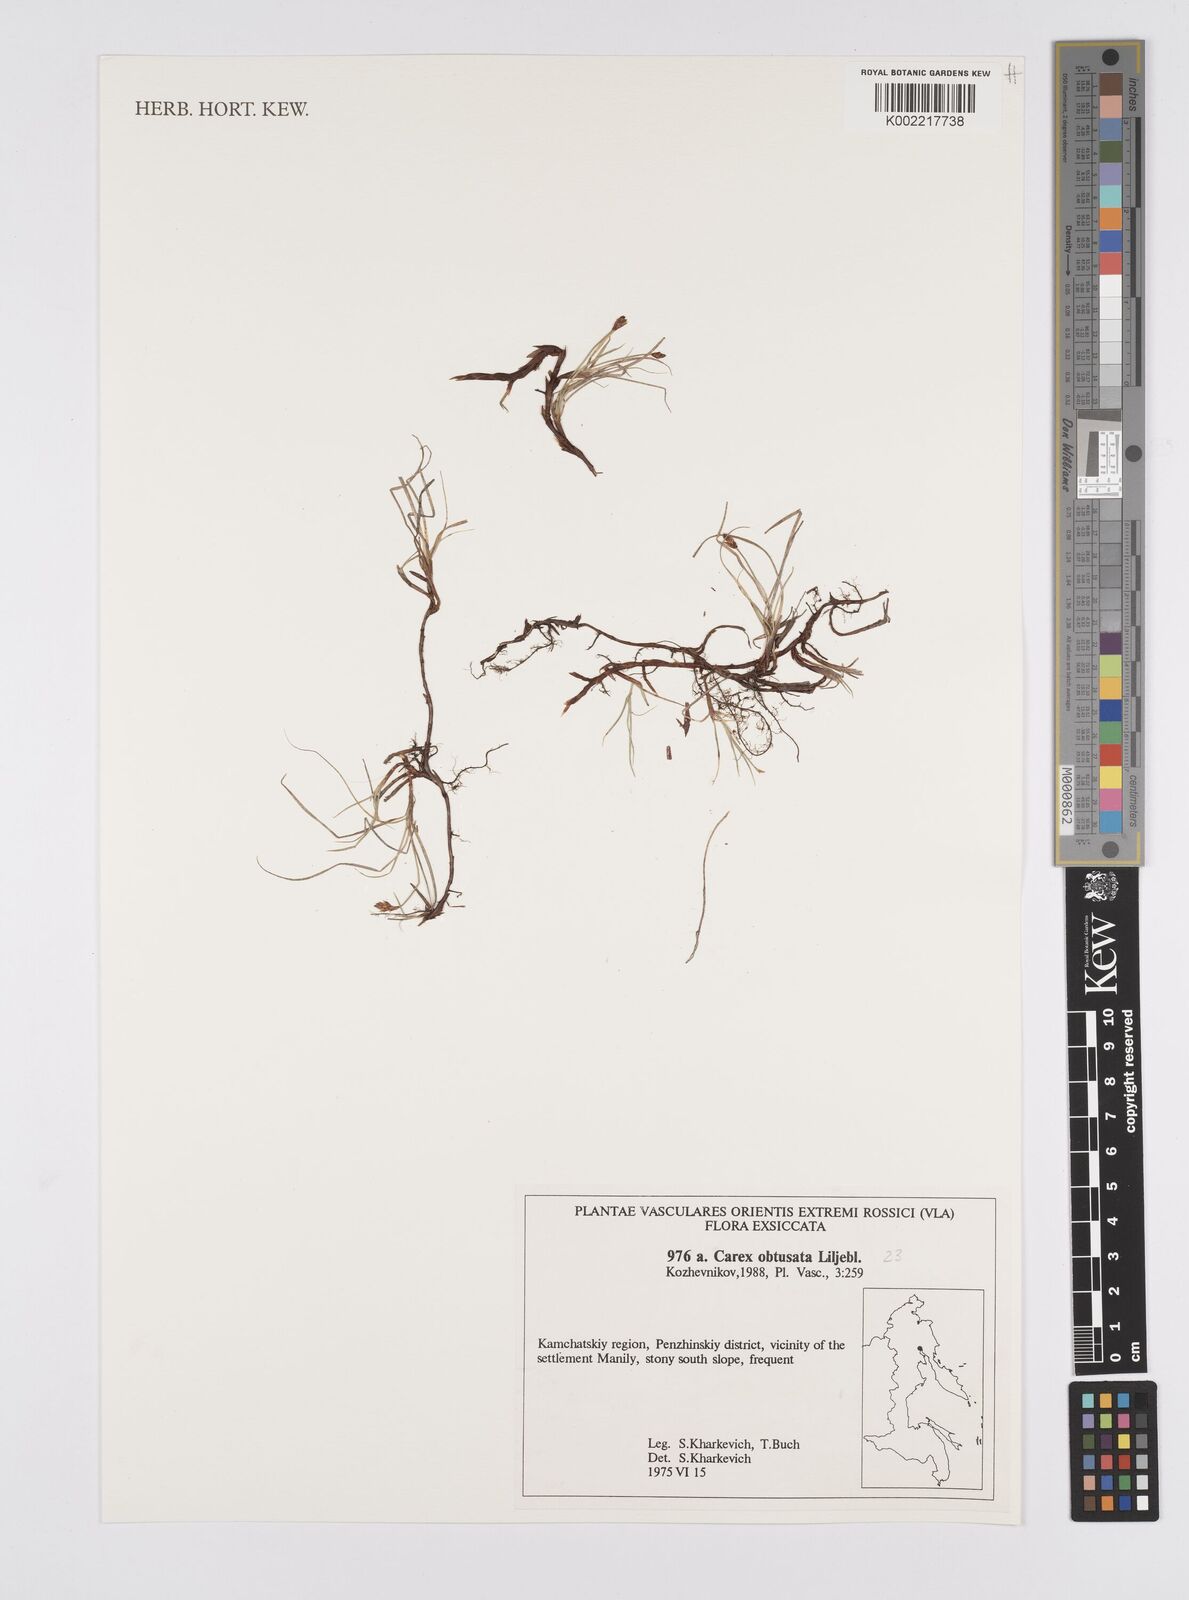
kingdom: Plantae
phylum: Tracheophyta
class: Liliopsida
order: Poales
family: Cyperaceae
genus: Carex
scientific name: Carex obtusata
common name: Blunt sedge
